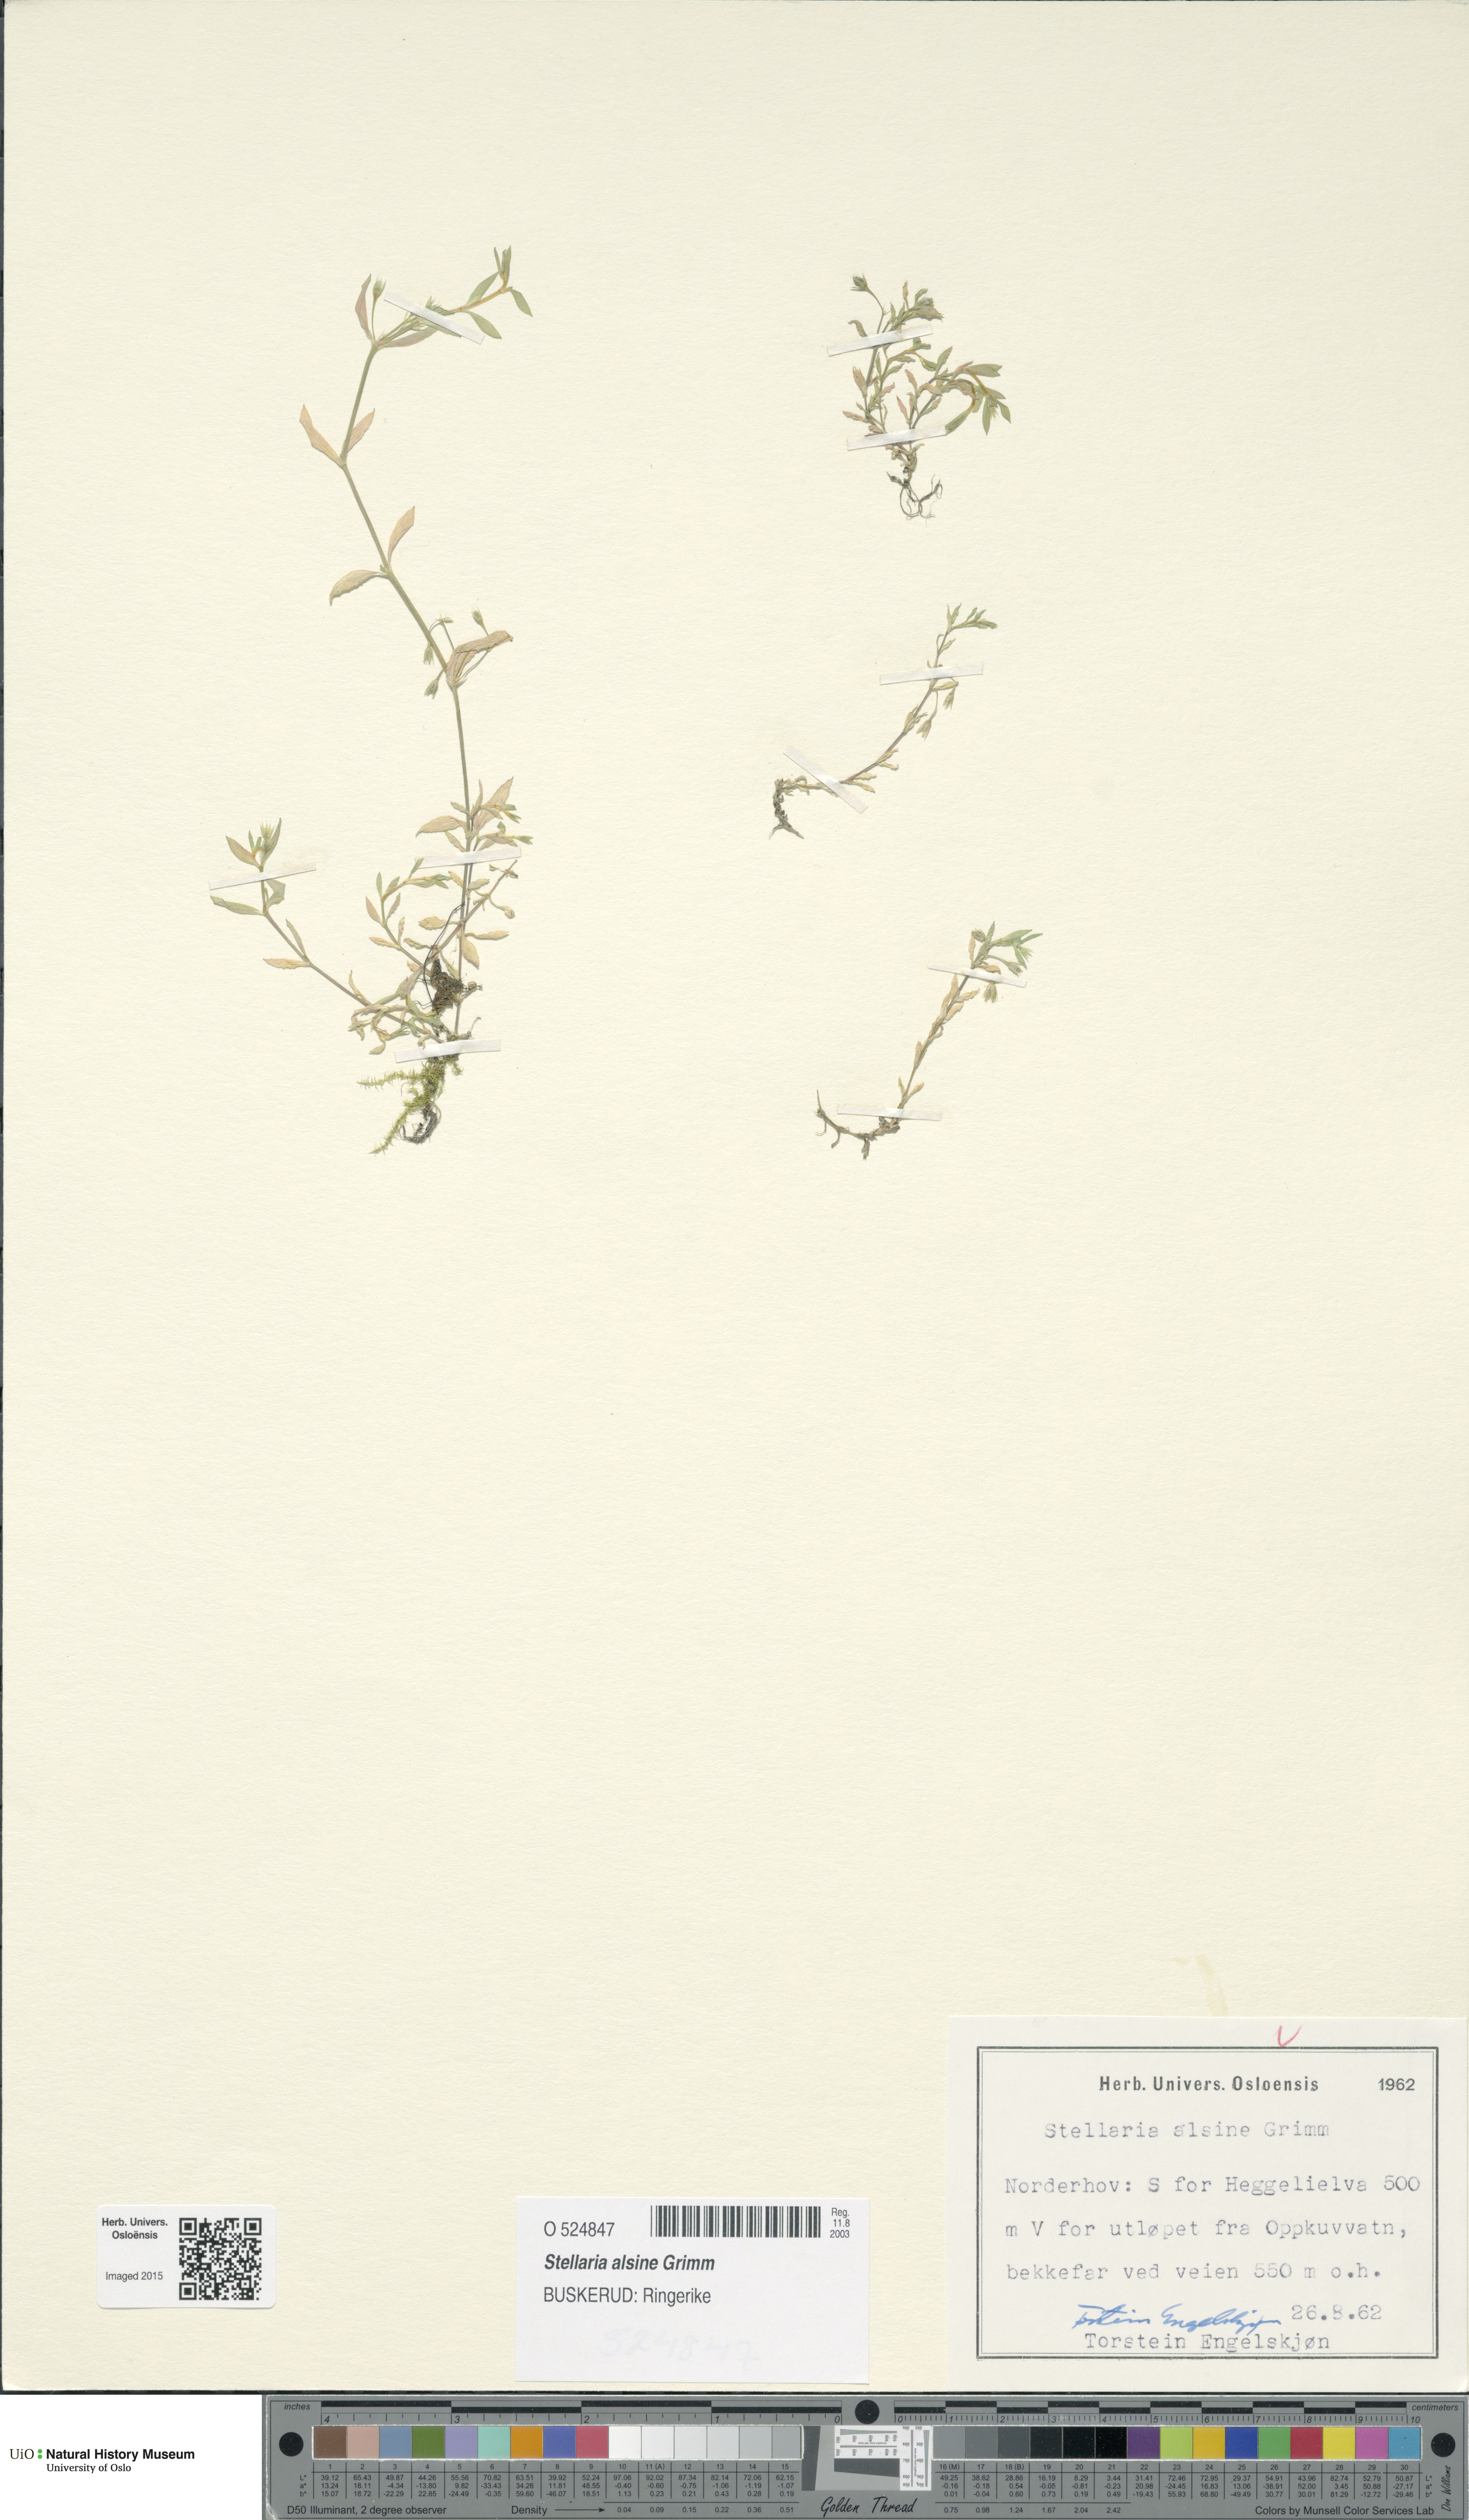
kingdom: Plantae
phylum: Tracheophyta
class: Magnoliopsida
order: Caryophyllales
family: Caryophyllaceae
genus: Stellaria
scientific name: Stellaria alsine
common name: Bog stitchwort
